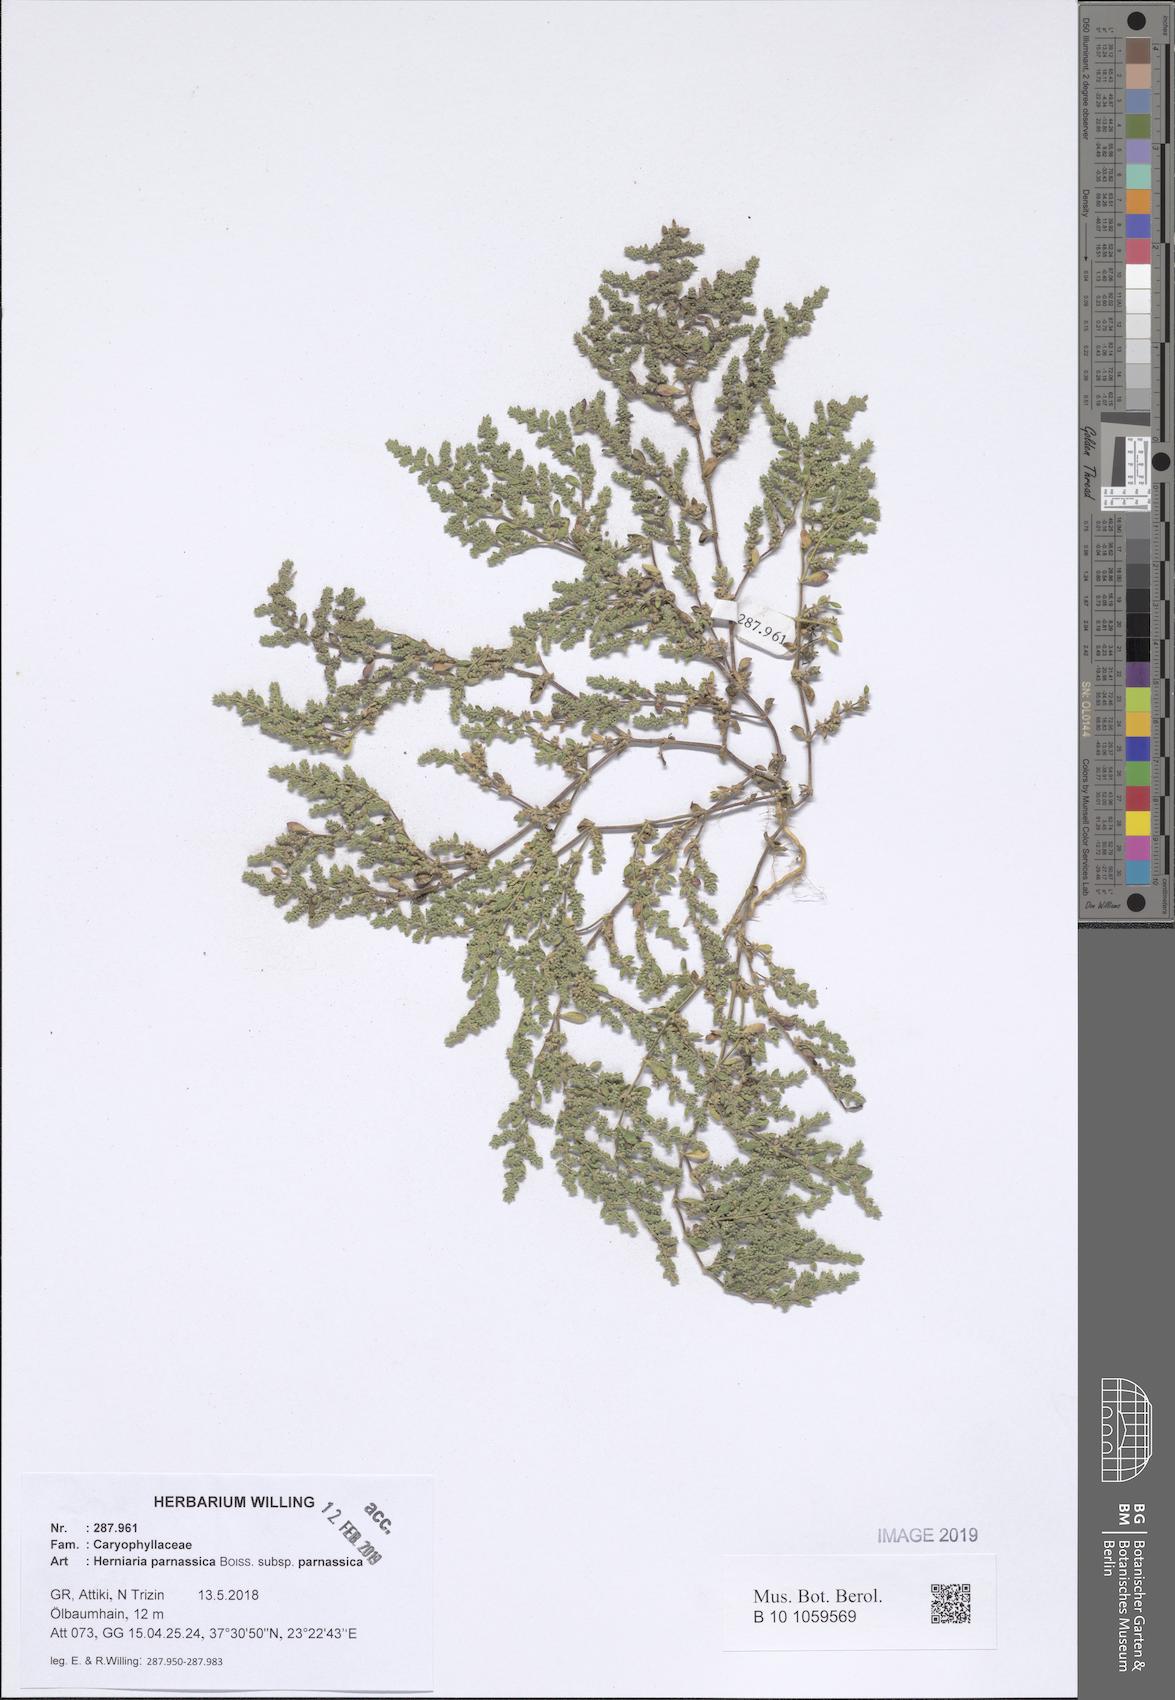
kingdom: Plantae
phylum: Tracheophyta
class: Magnoliopsida
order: Caryophyllales
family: Caryophyllaceae
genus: Herniaria
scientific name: Herniaria parnassica
